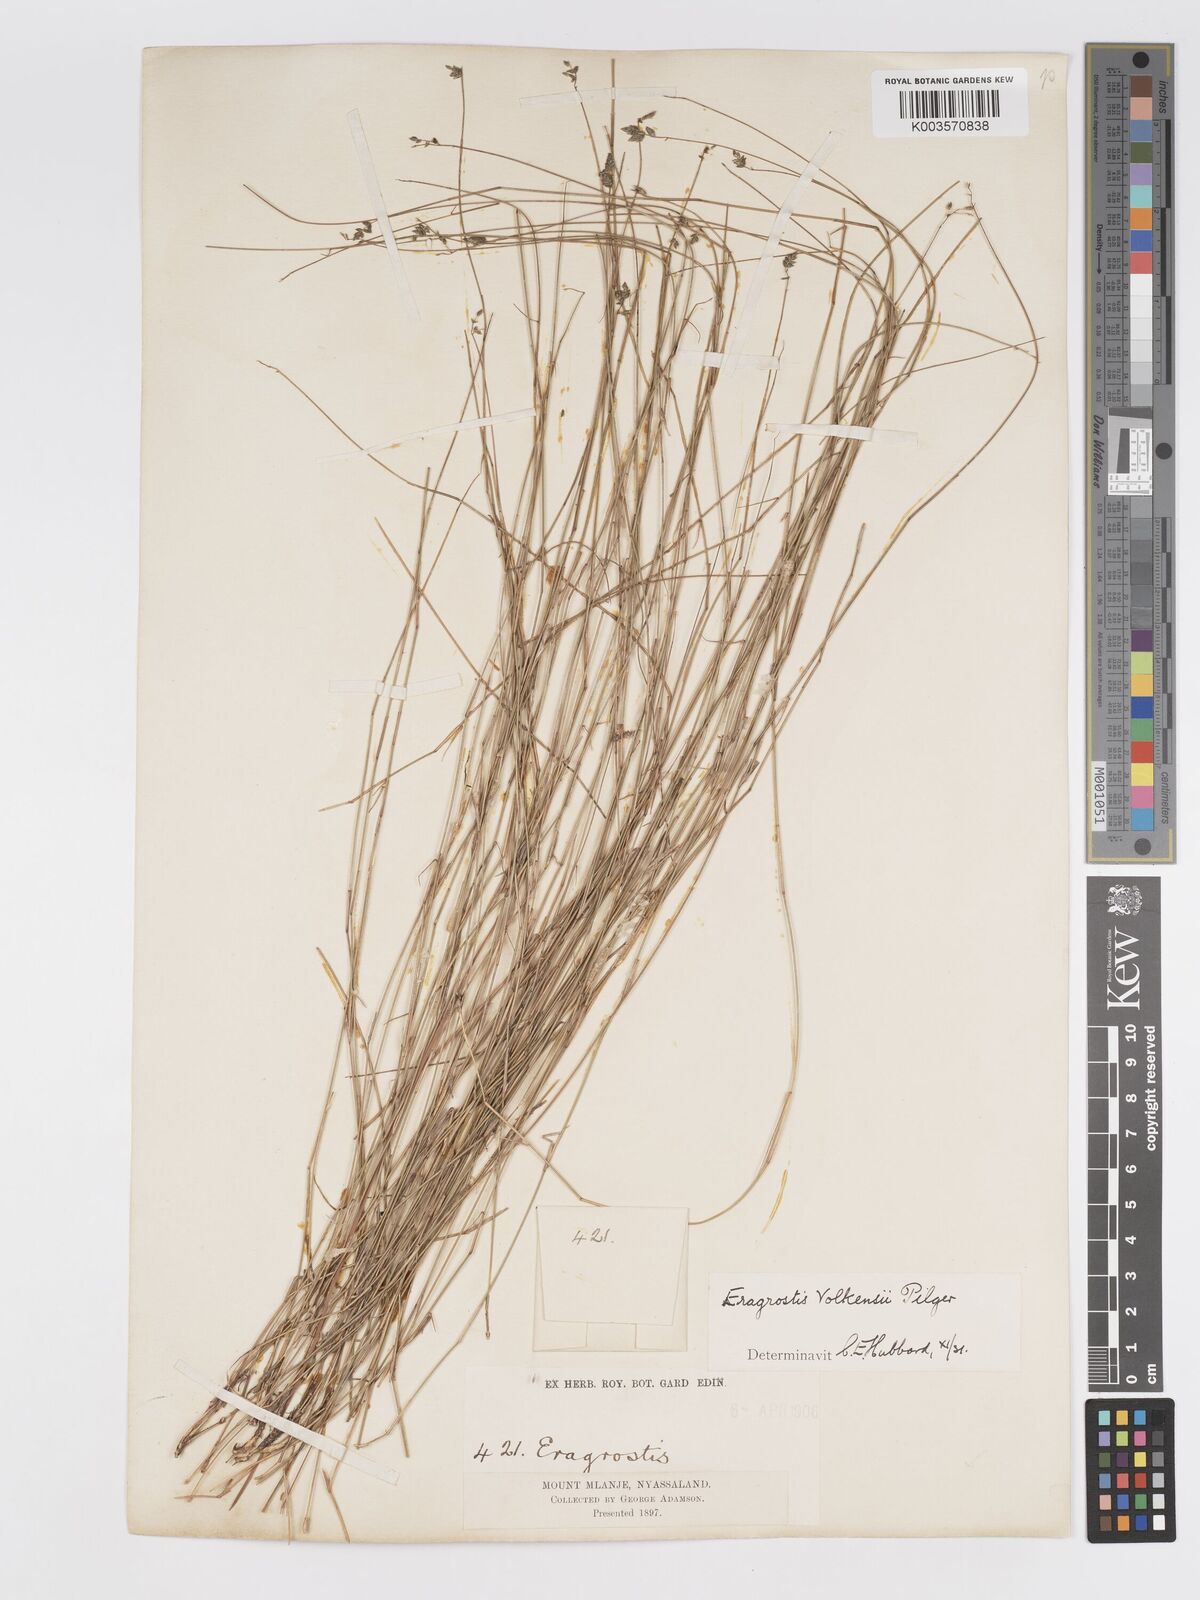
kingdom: Plantae
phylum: Tracheophyta
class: Liliopsida
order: Poales
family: Poaceae
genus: Eragrostis
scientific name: Eragrostis volkensii
